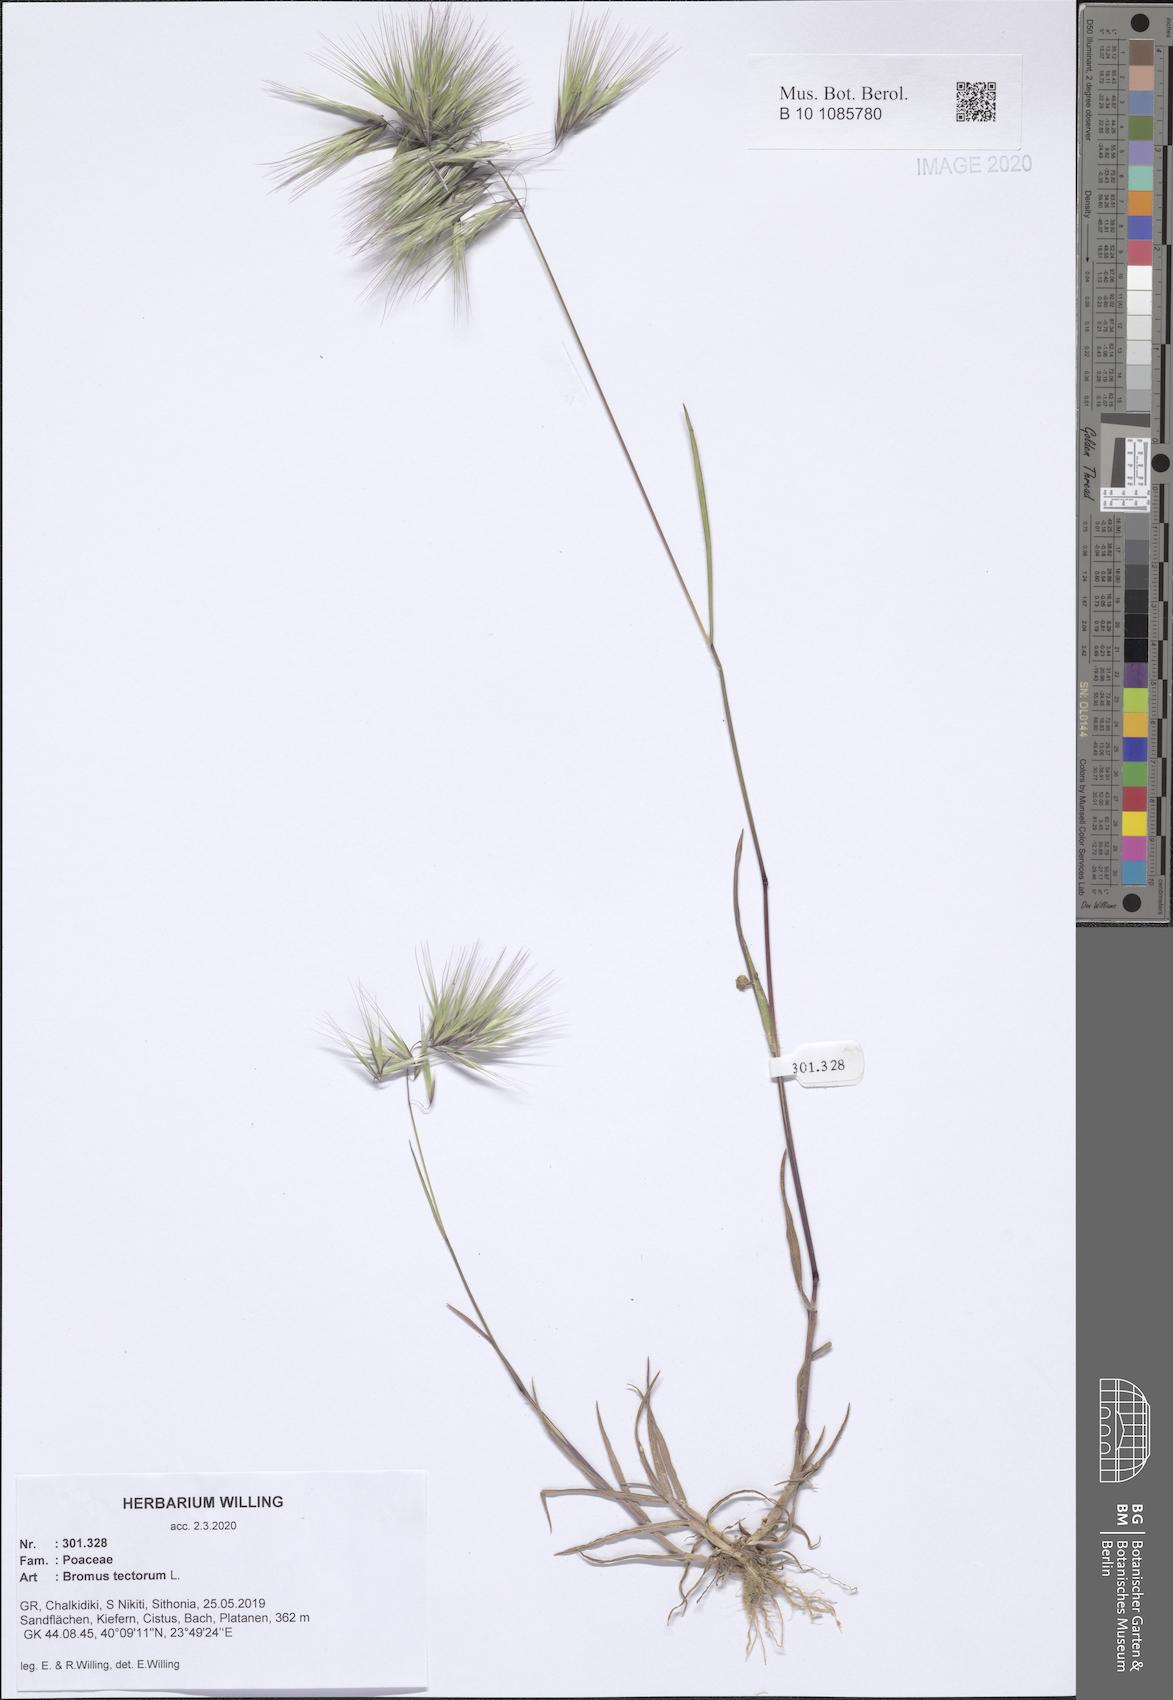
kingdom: Plantae
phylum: Tracheophyta
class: Liliopsida
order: Poales
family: Poaceae
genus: Bromus
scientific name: Bromus tectorum
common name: Cheatgrass
